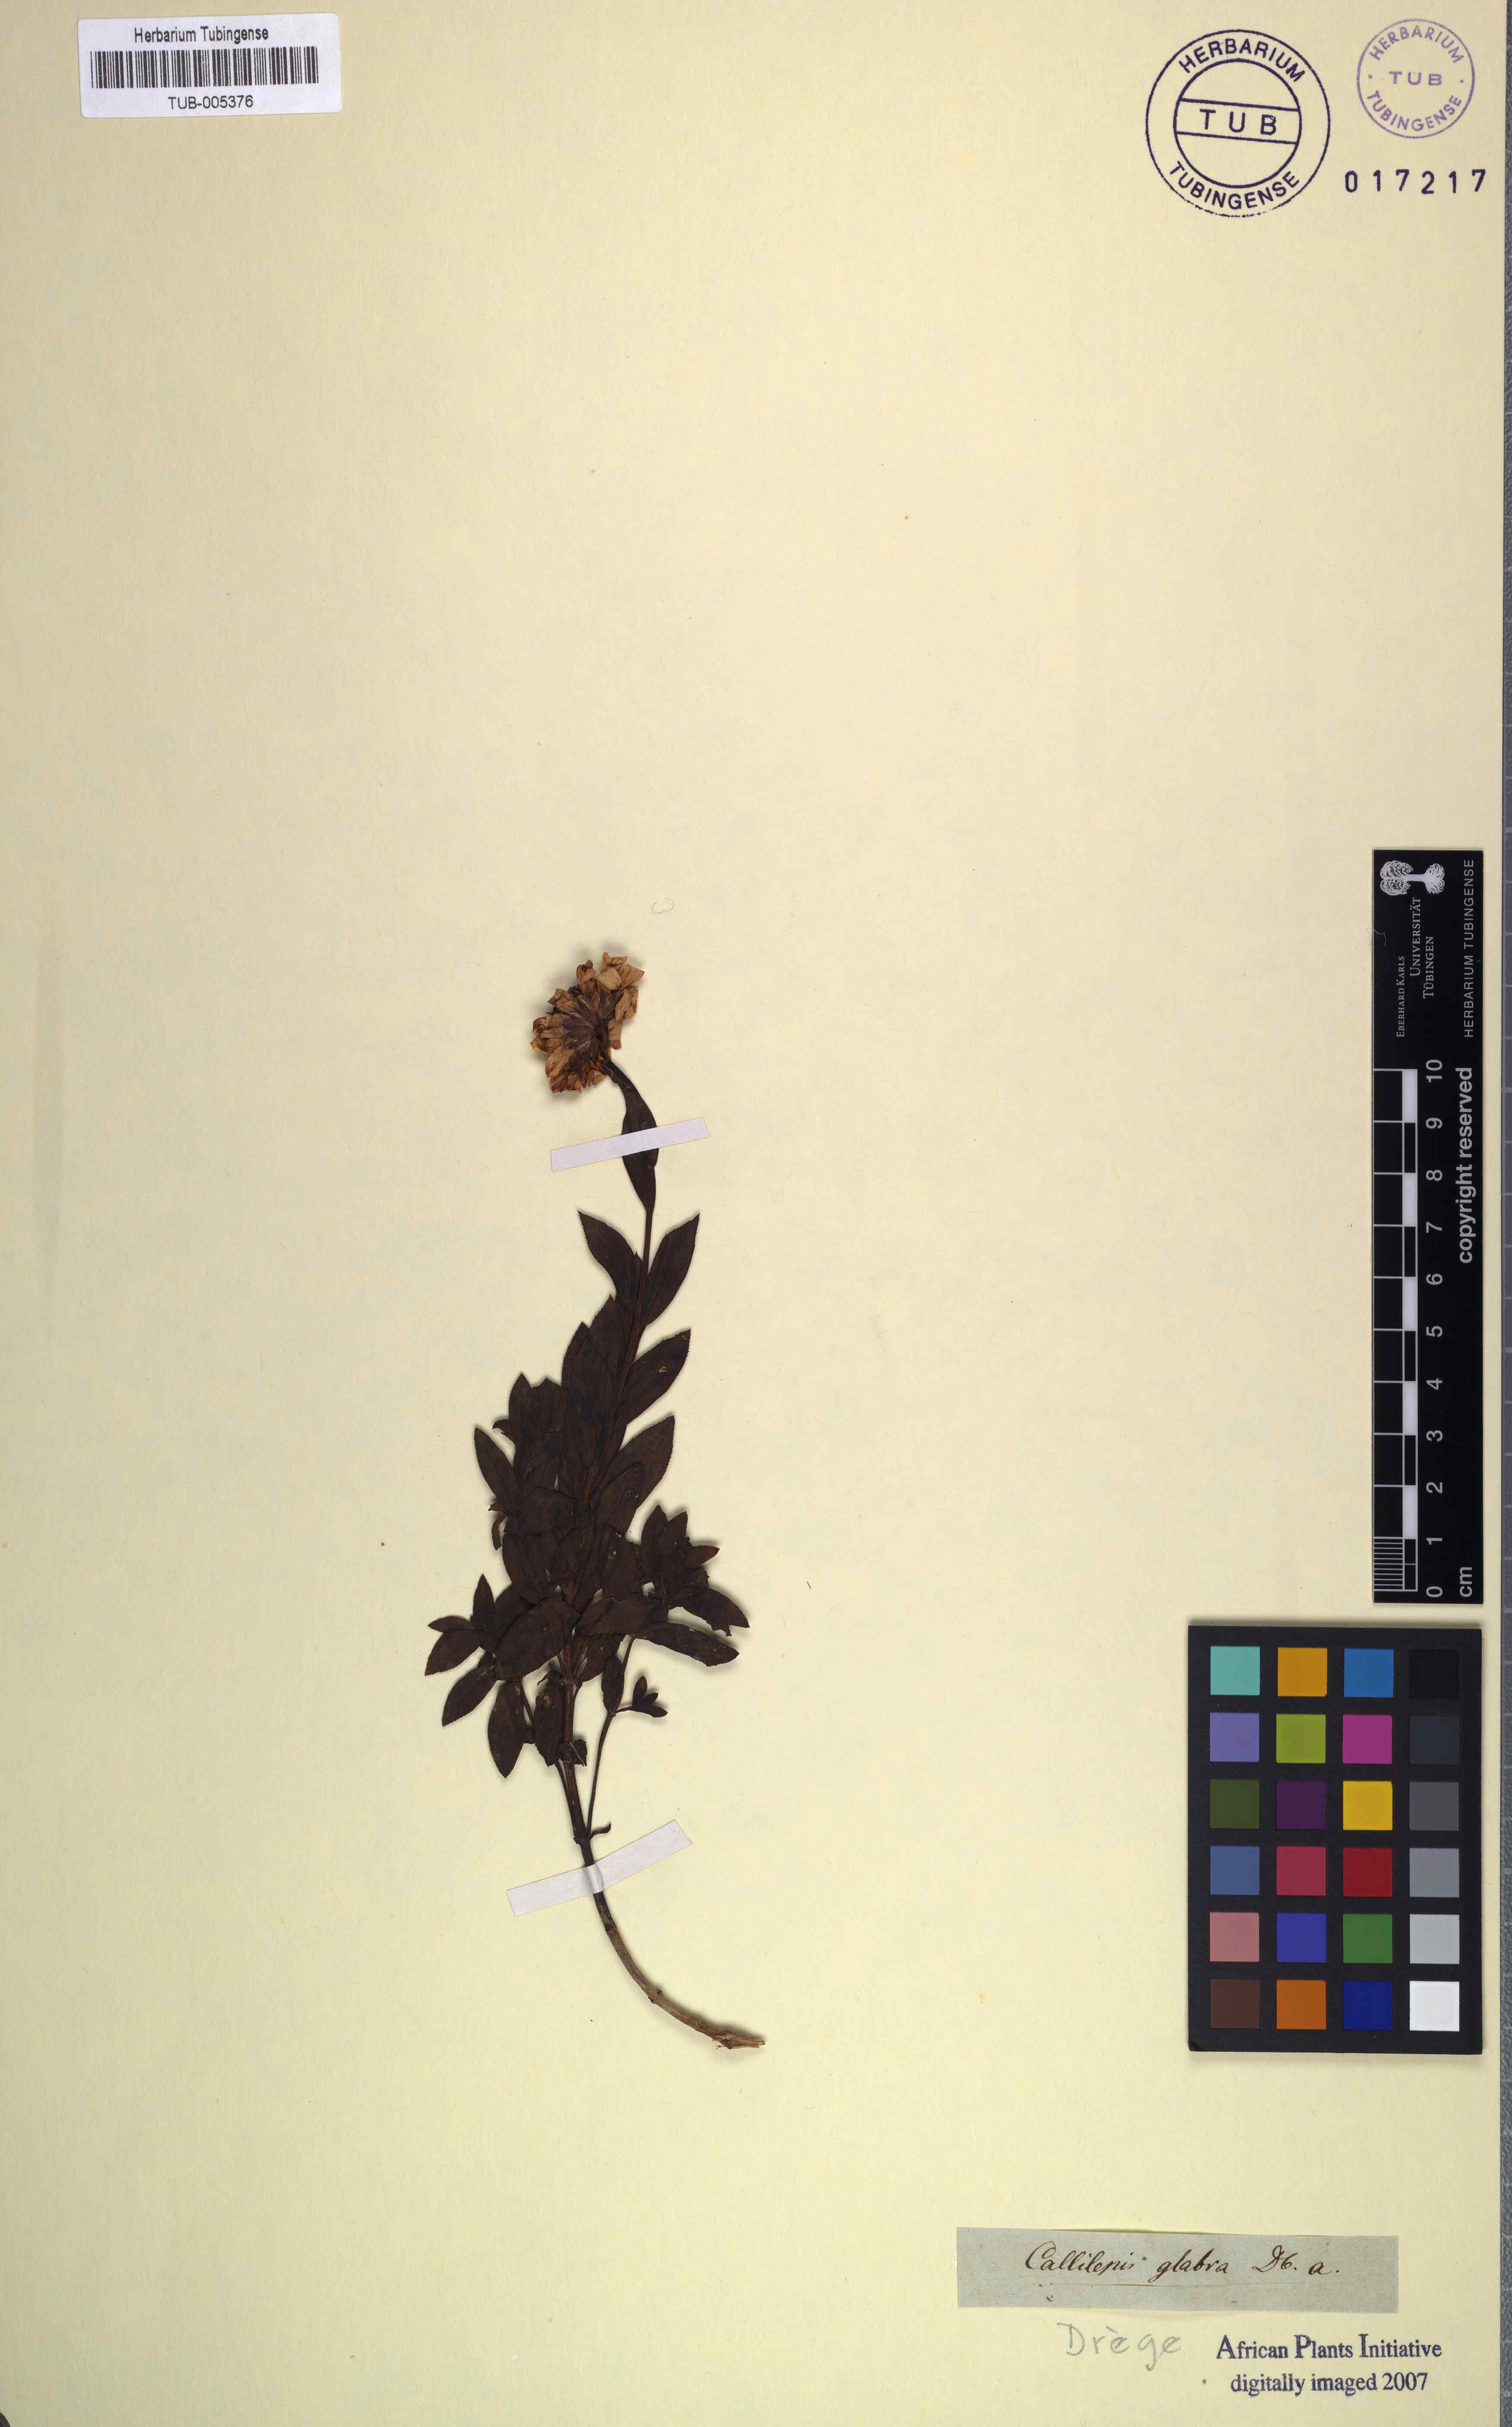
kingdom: Plantae
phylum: Tracheophyta
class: Magnoliopsida
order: Asterales
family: Asteraceae
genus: Callilepis
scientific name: Callilepis laureola
